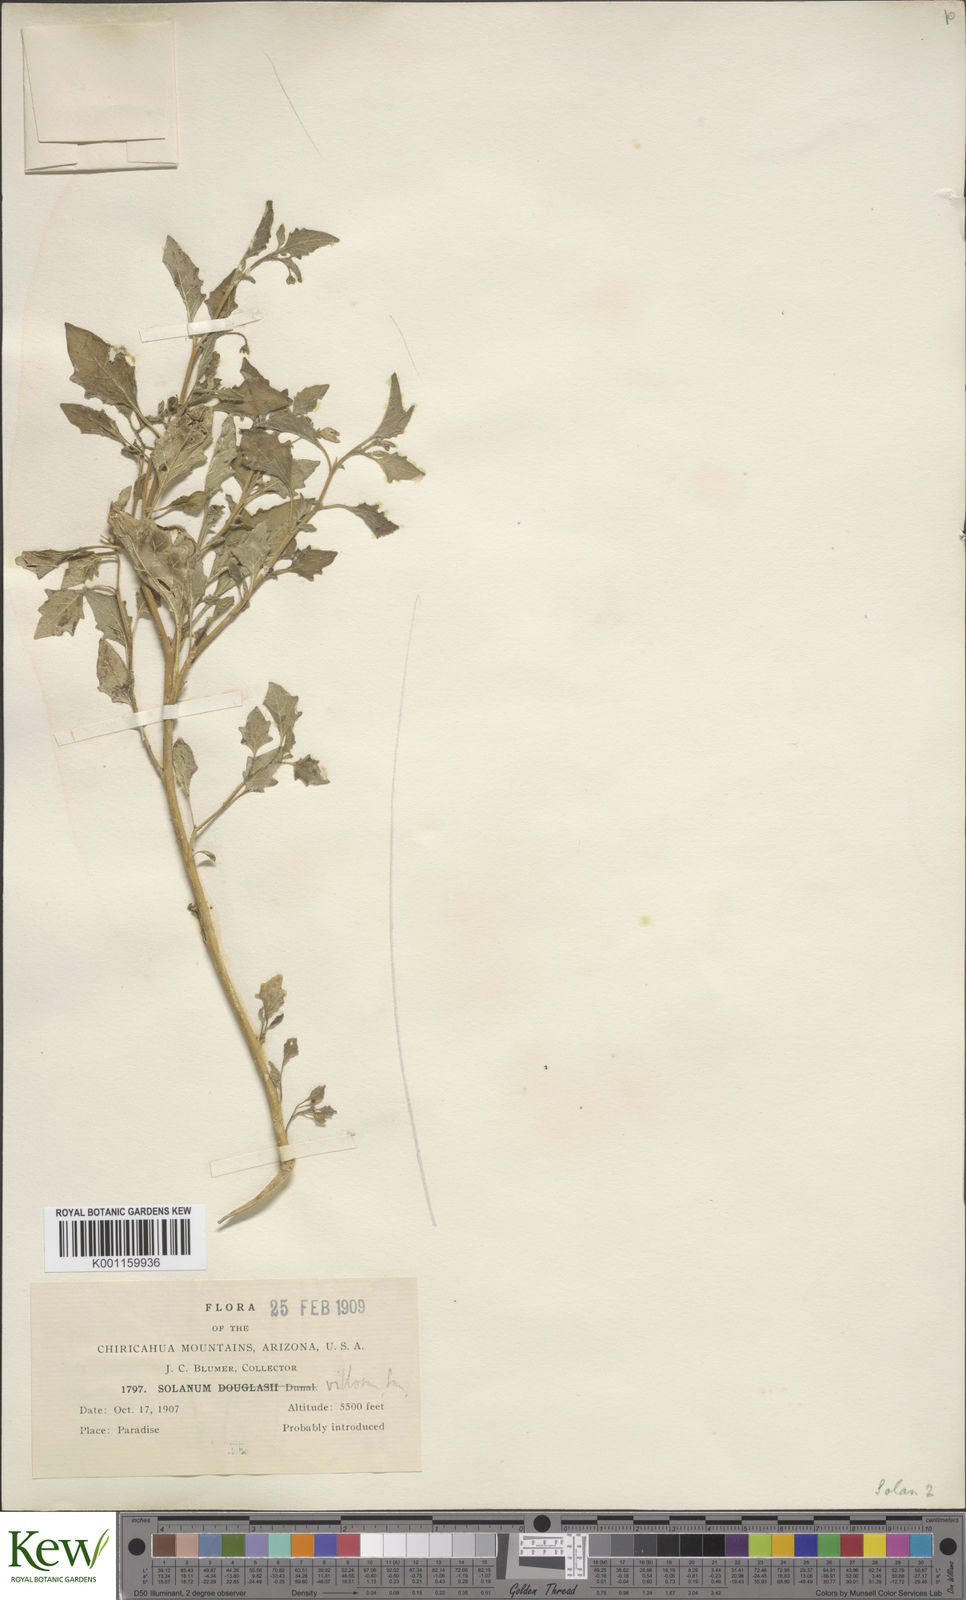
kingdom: Plantae
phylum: Tracheophyta
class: Magnoliopsida
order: Solanales
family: Solanaceae
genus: Solanum
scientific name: Solanum douglasii
